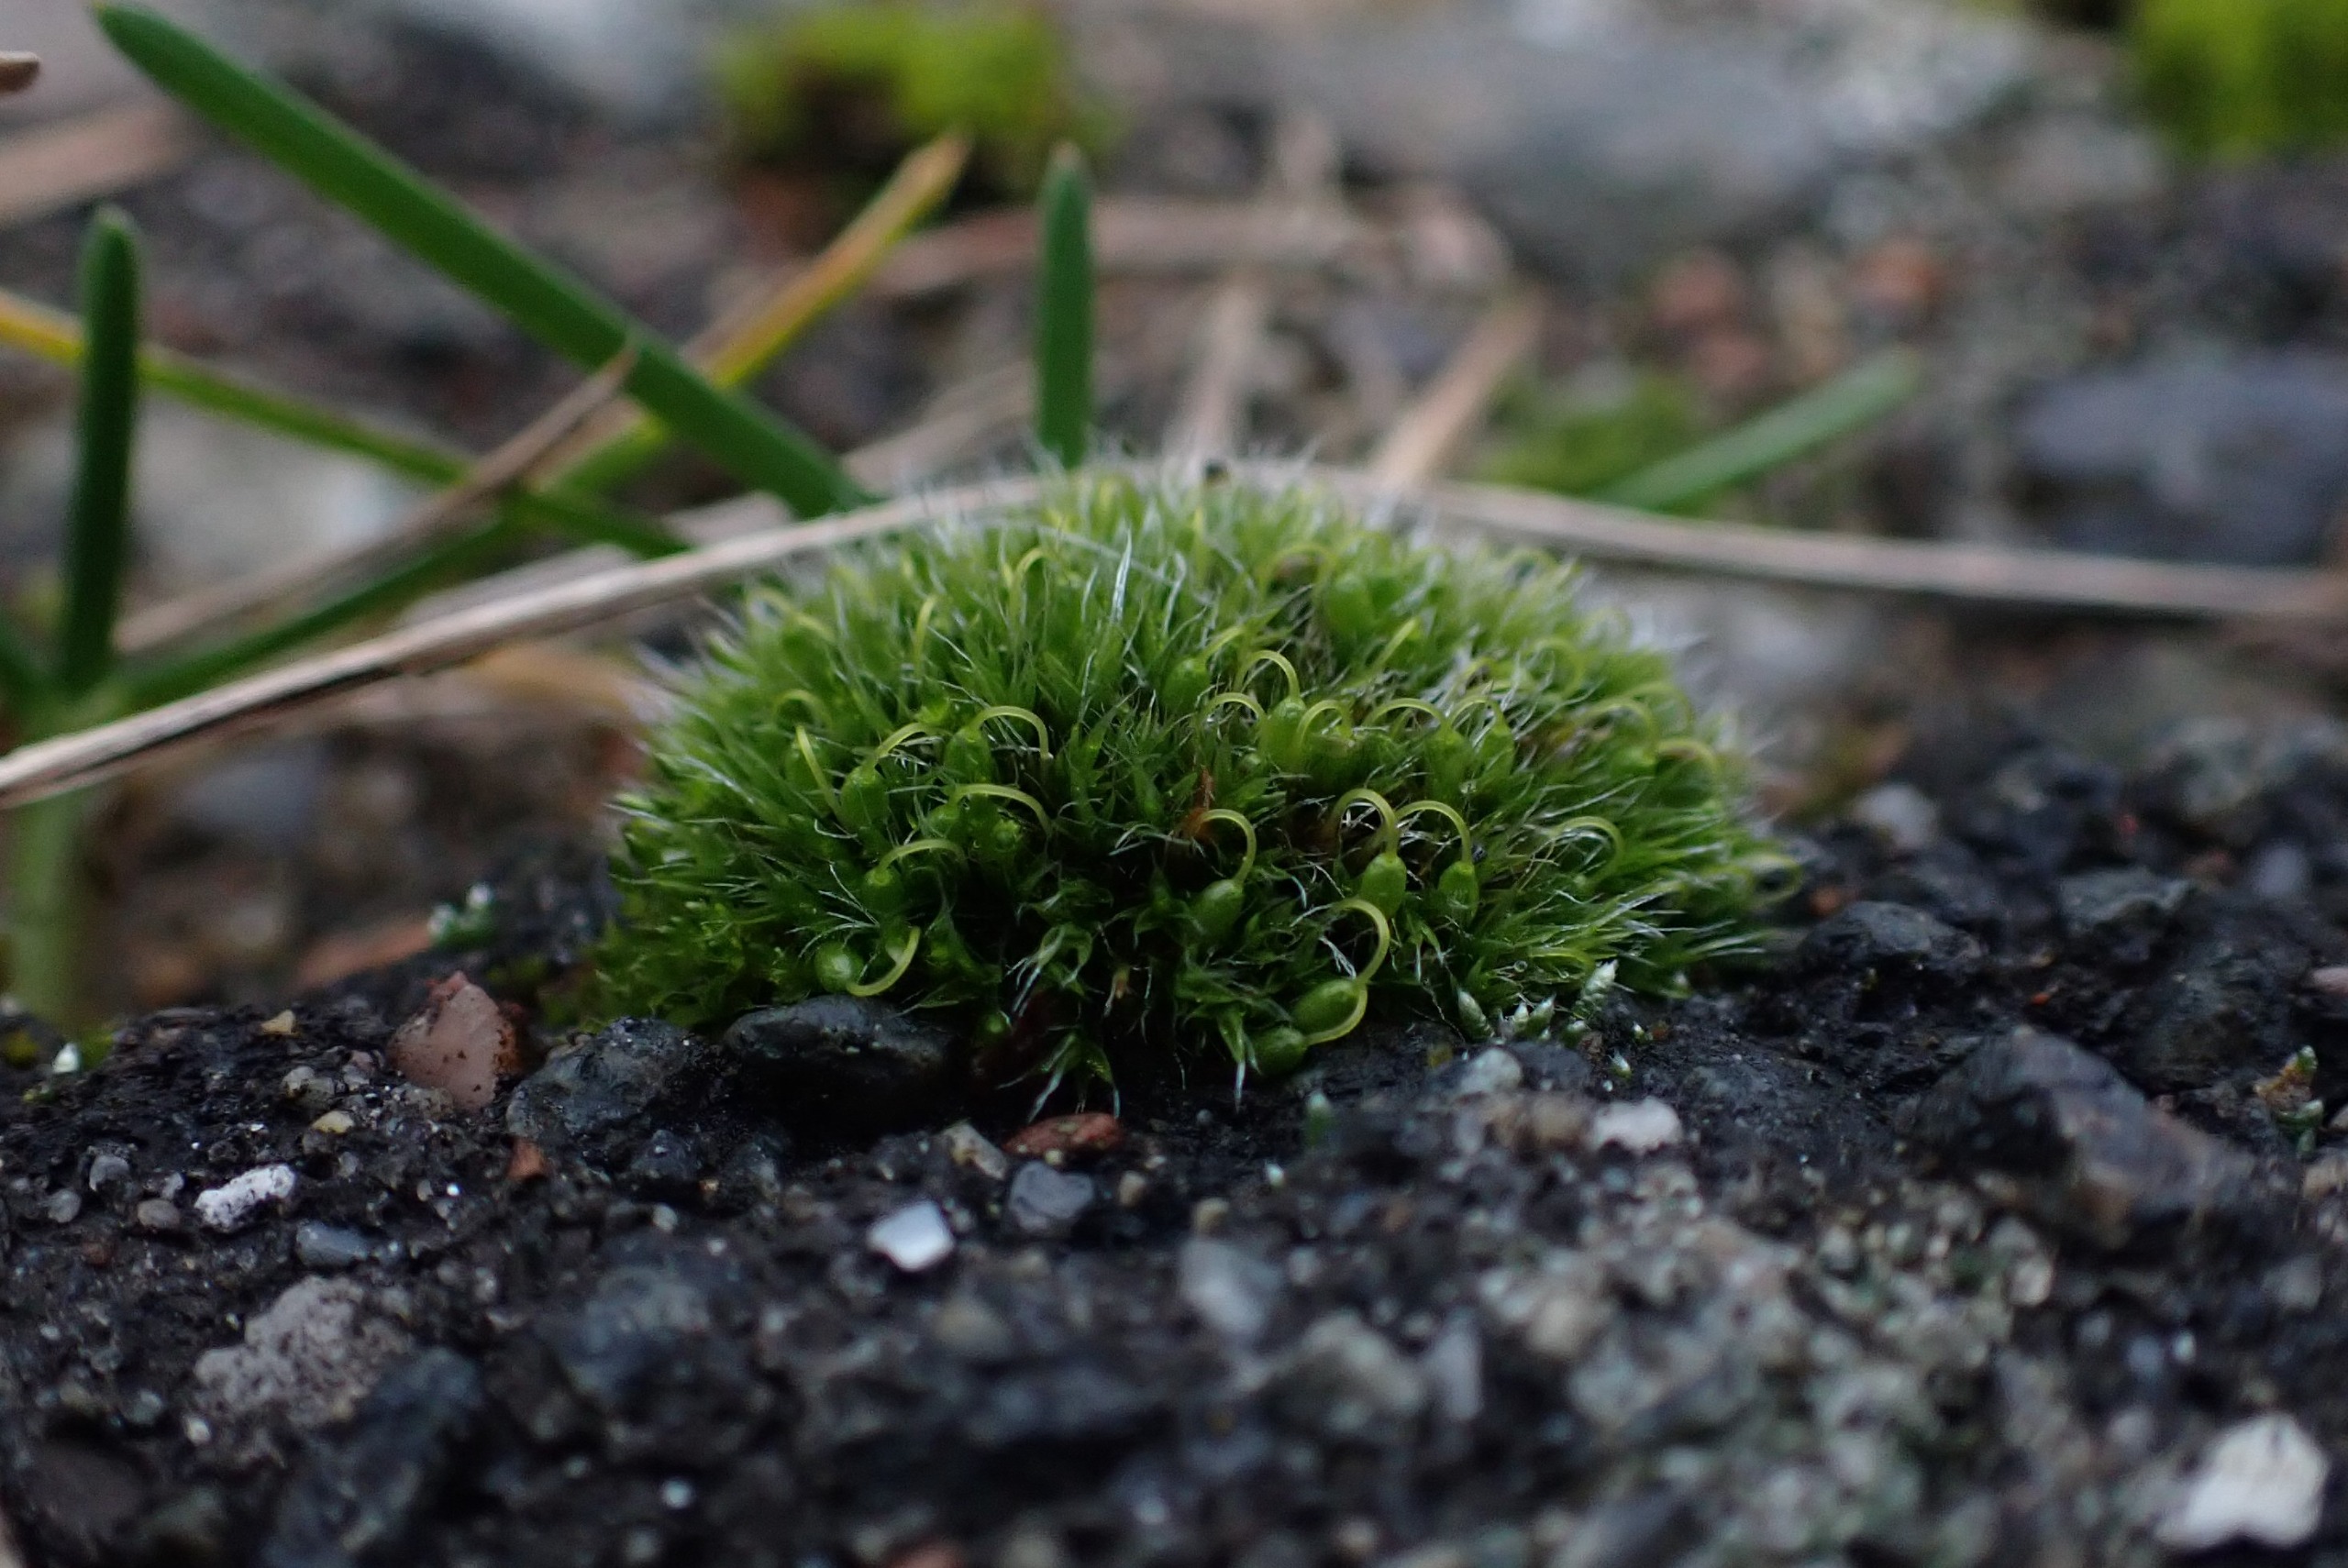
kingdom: Plantae
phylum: Bryophyta
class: Bryopsida
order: Grimmiales
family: Grimmiaceae
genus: Grimmia
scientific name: Grimmia pulvinata
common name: Pude-gråmos
